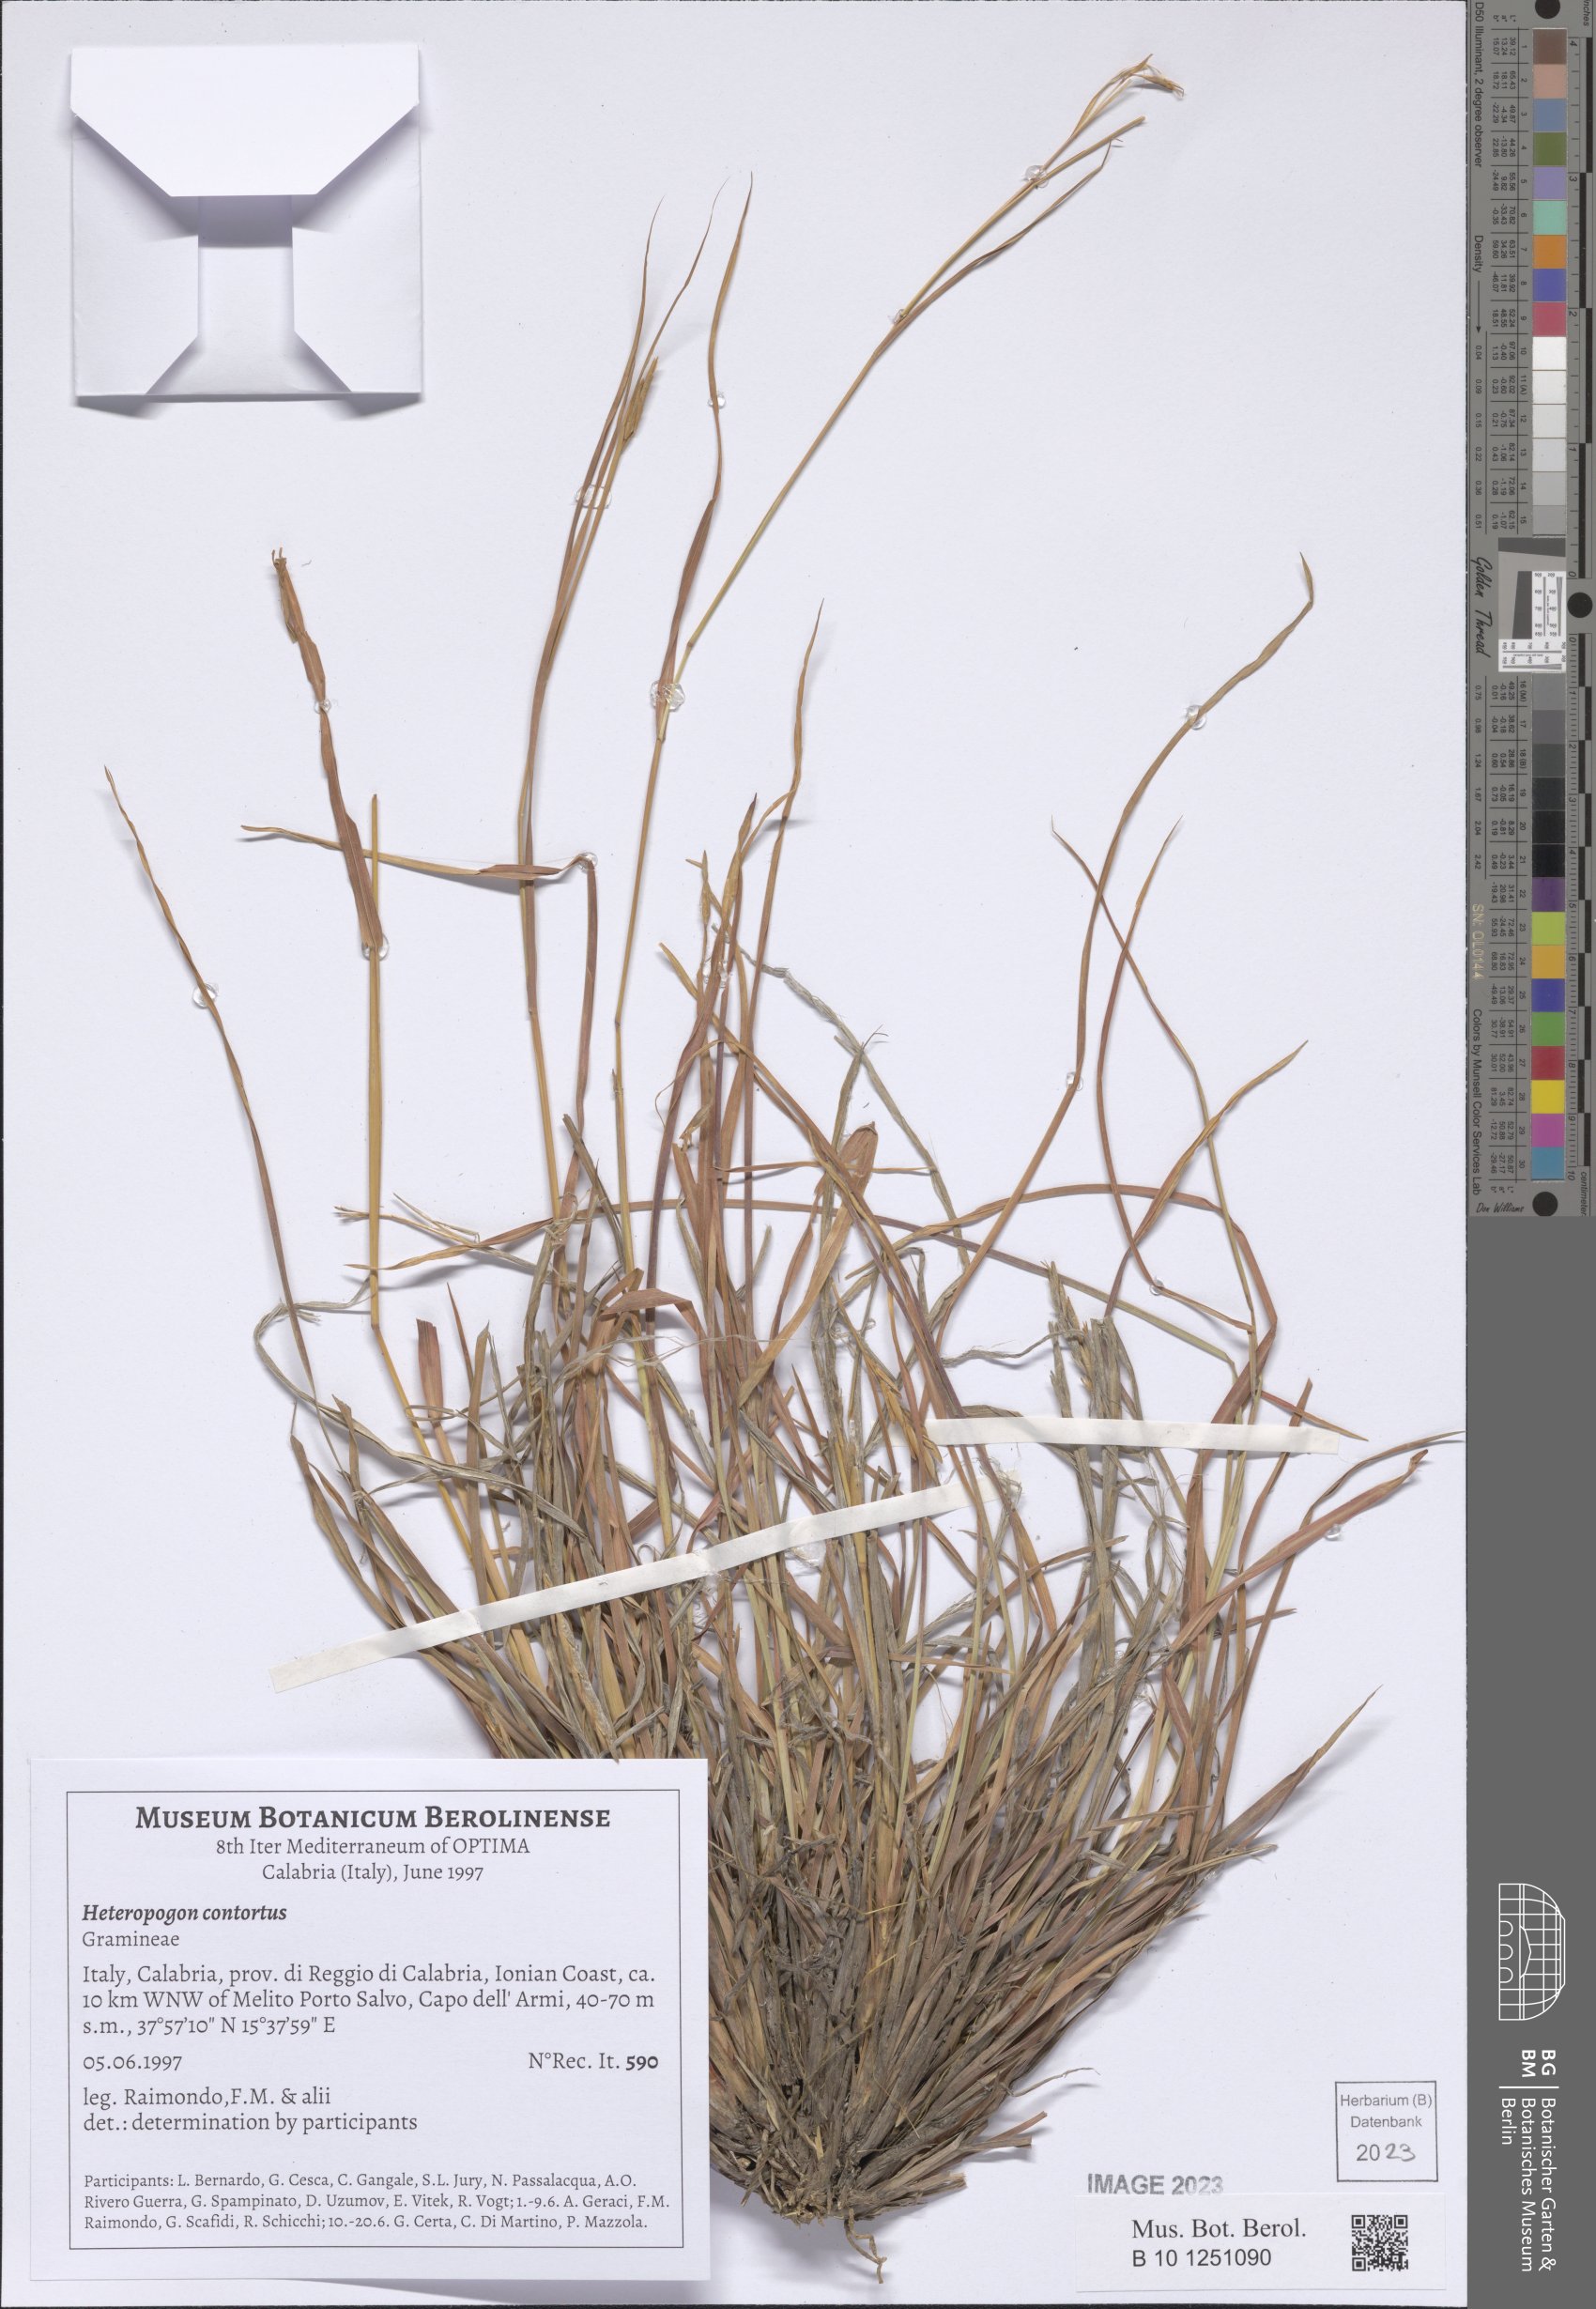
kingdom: Plantae
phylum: Tracheophyta
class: Liliopsida
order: Poales
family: Poaceae
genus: Heteropogon
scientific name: Heteropogon contortus
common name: Tanglehead
